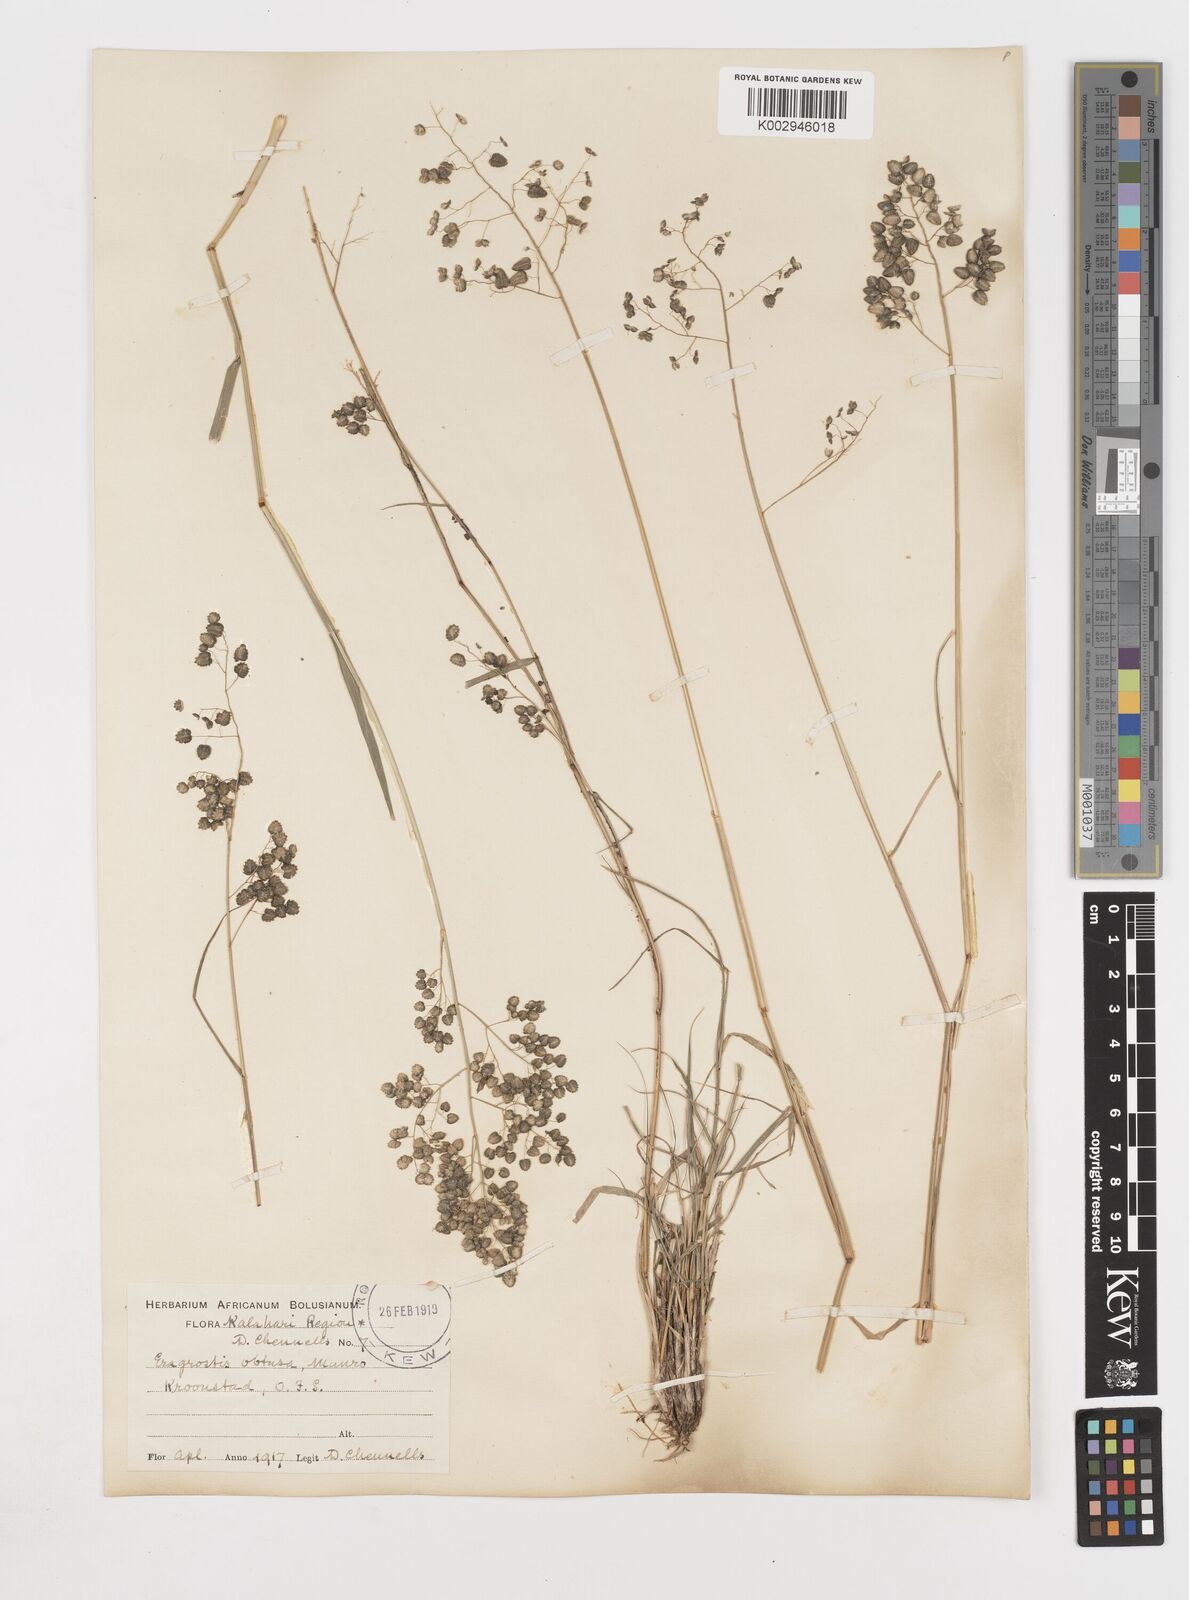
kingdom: Plantae
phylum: Tracheophyta
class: Liliopsida
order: Poales
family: Poaceae
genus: Eragrostis
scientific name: Eragrostis obtusa
